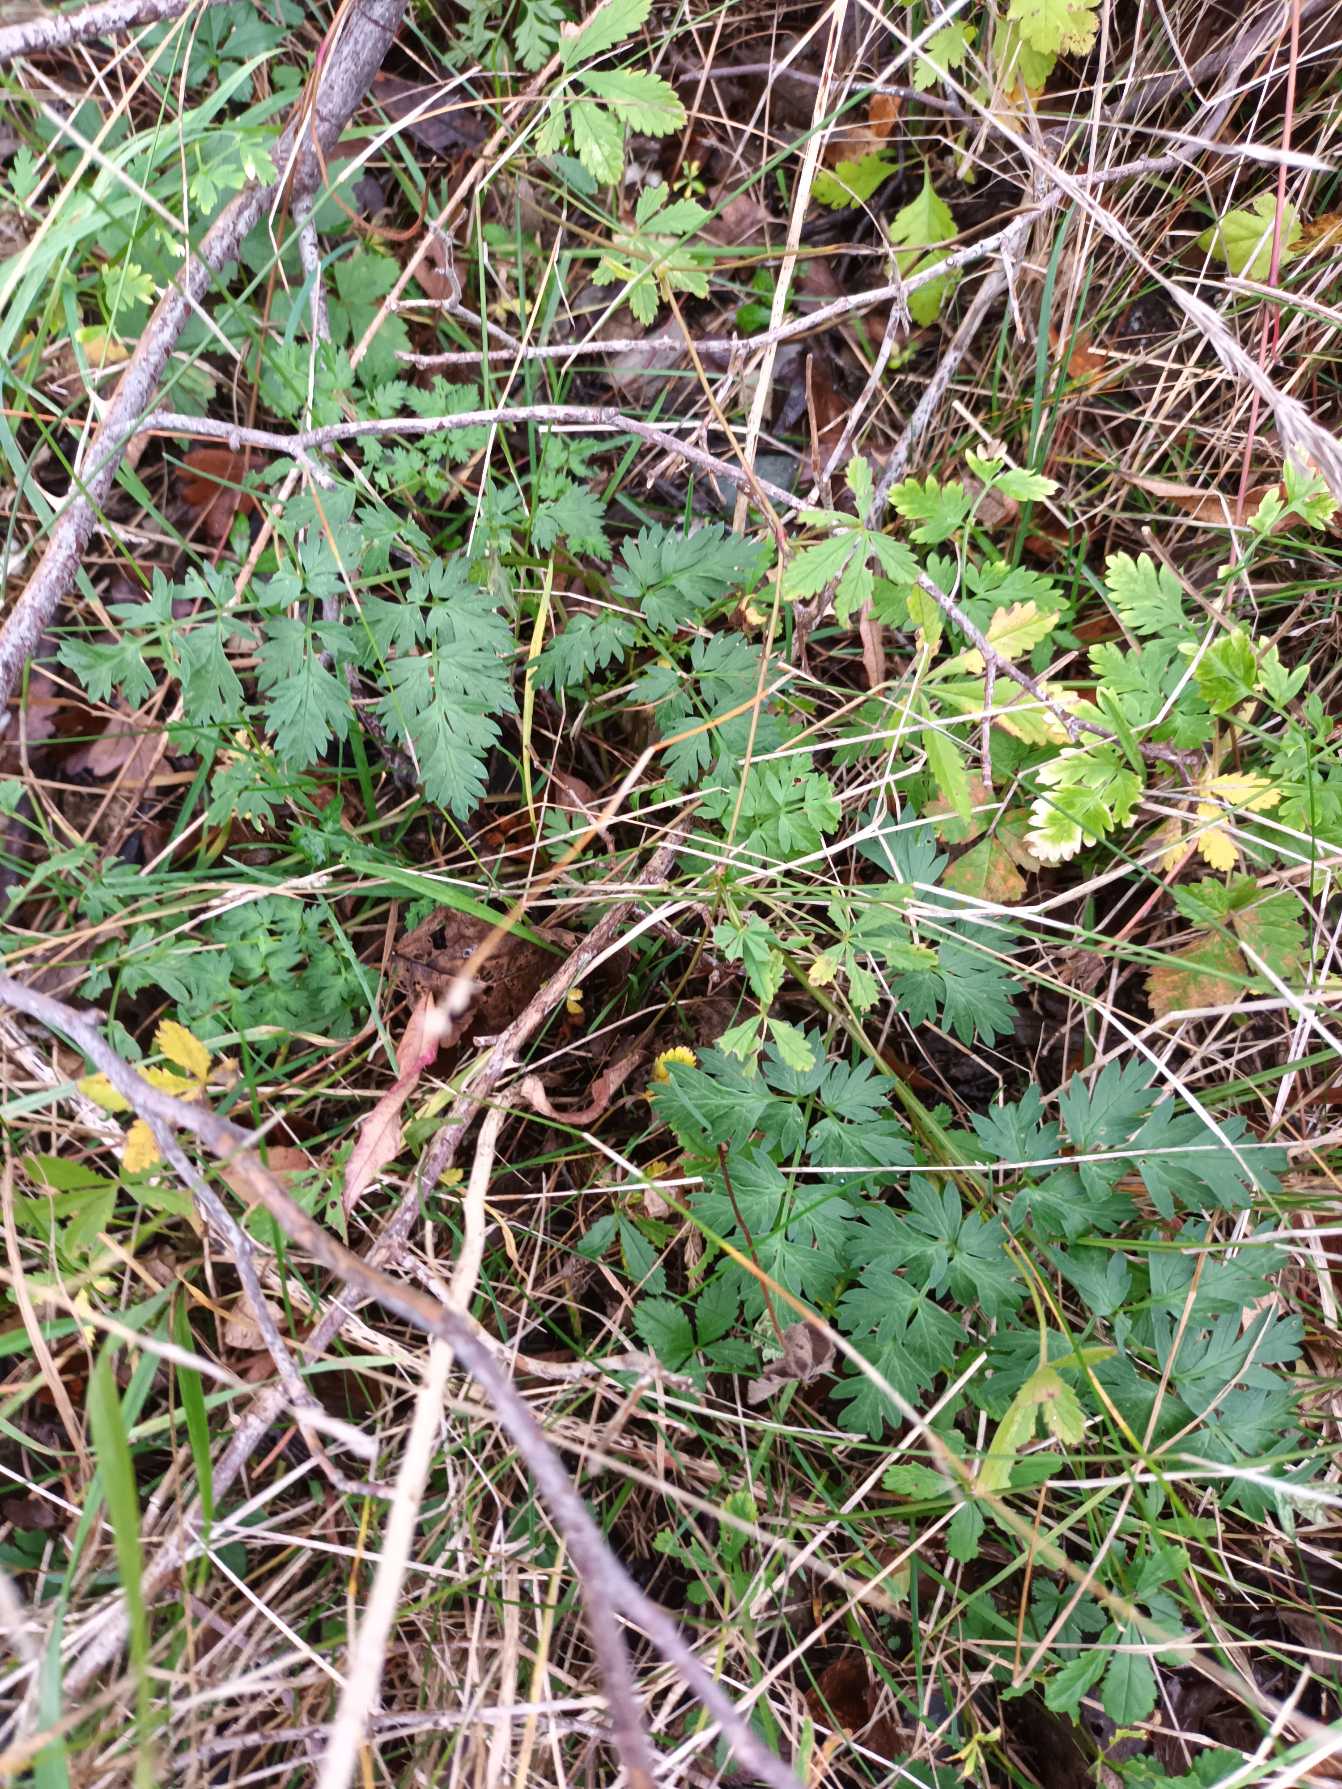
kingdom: Plantae
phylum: Tracheophyta
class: Magnoliopsida
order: Apiales
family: Apiaceae
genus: Anthriscus
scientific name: Anthriscus sylvestris
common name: Vild kørvel
